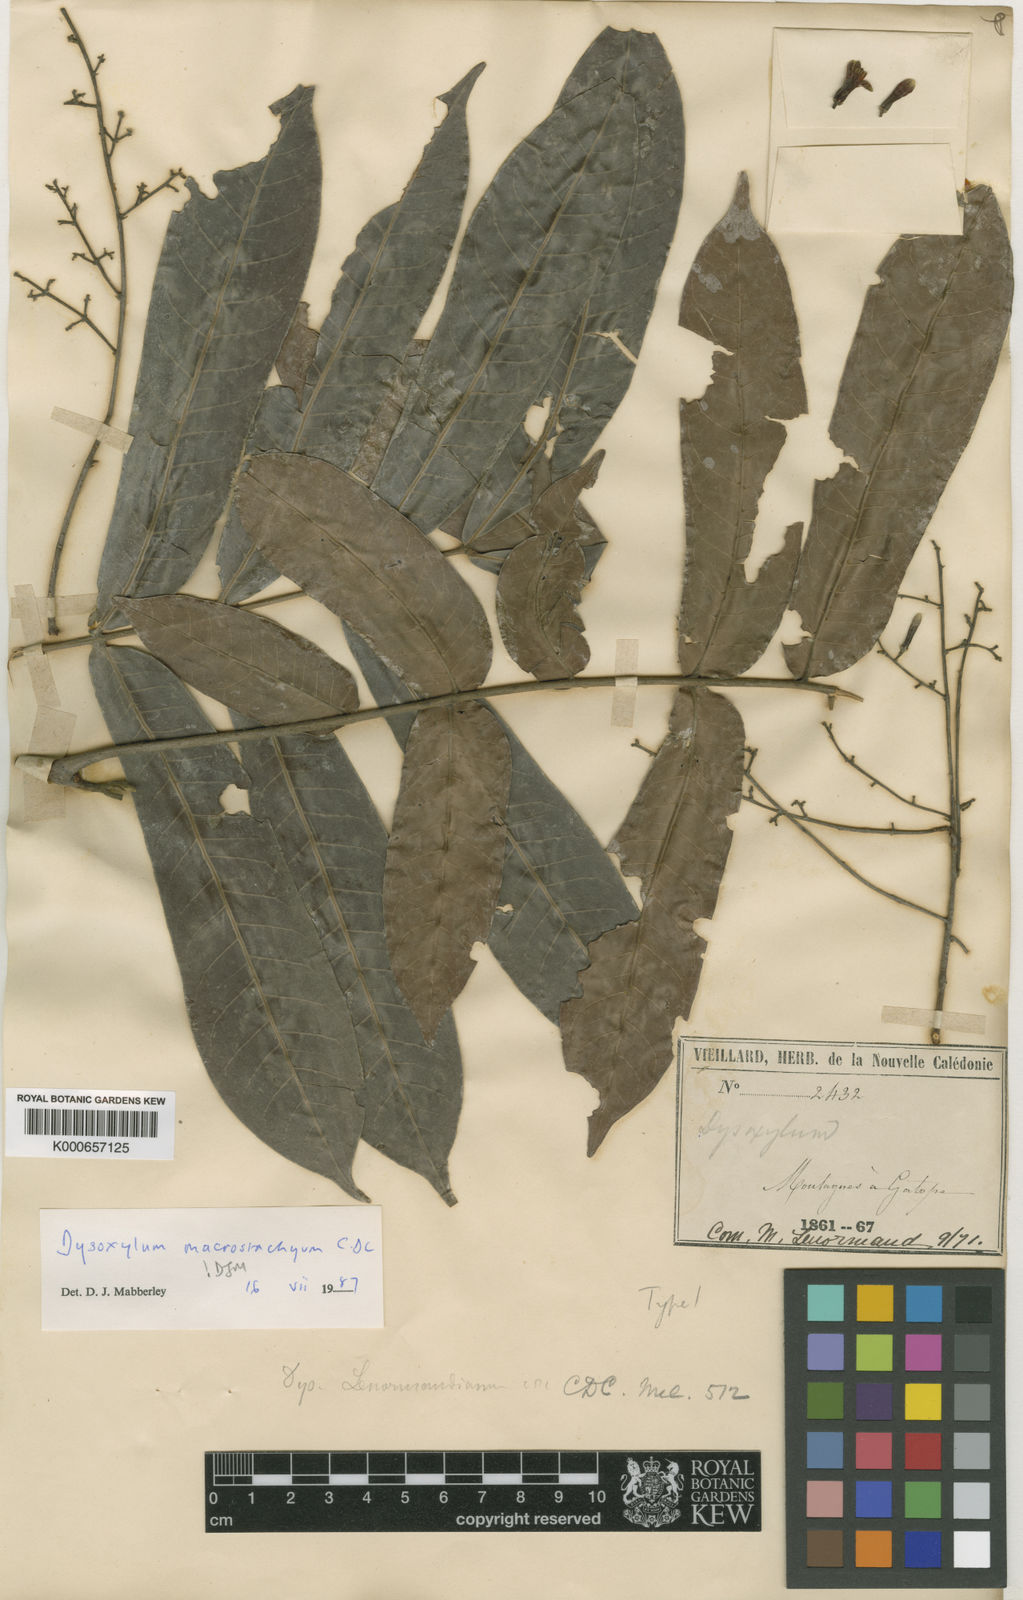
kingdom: Plantae
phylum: Tracheophyta
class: Magnoliopsida
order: Sapindales
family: Meliaceae
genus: Didymocheton
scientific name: Didymocheton macrostachyus
